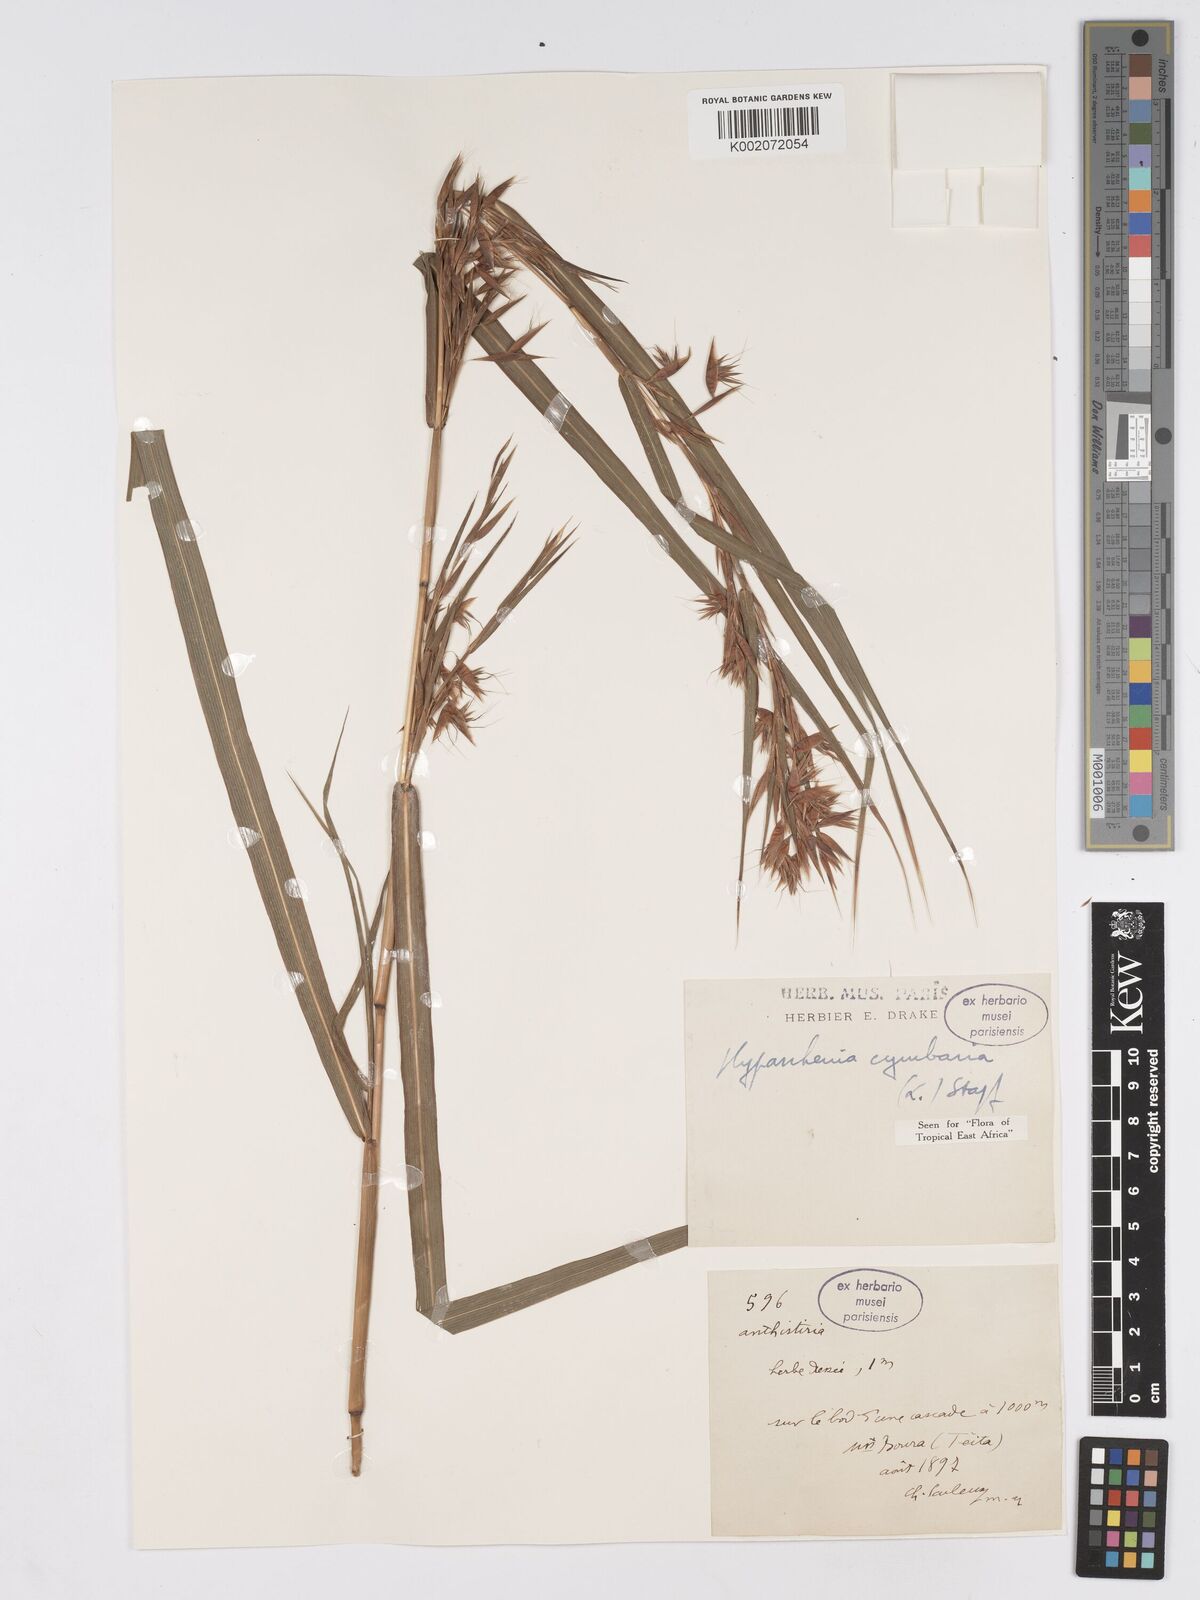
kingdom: Plantae
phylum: Tracheophyta
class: Liliopsida
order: Poales
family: Poaceae
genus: Hyparrhenia
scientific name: Hyparrhenia cymbaria
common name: Boat thatching grass
